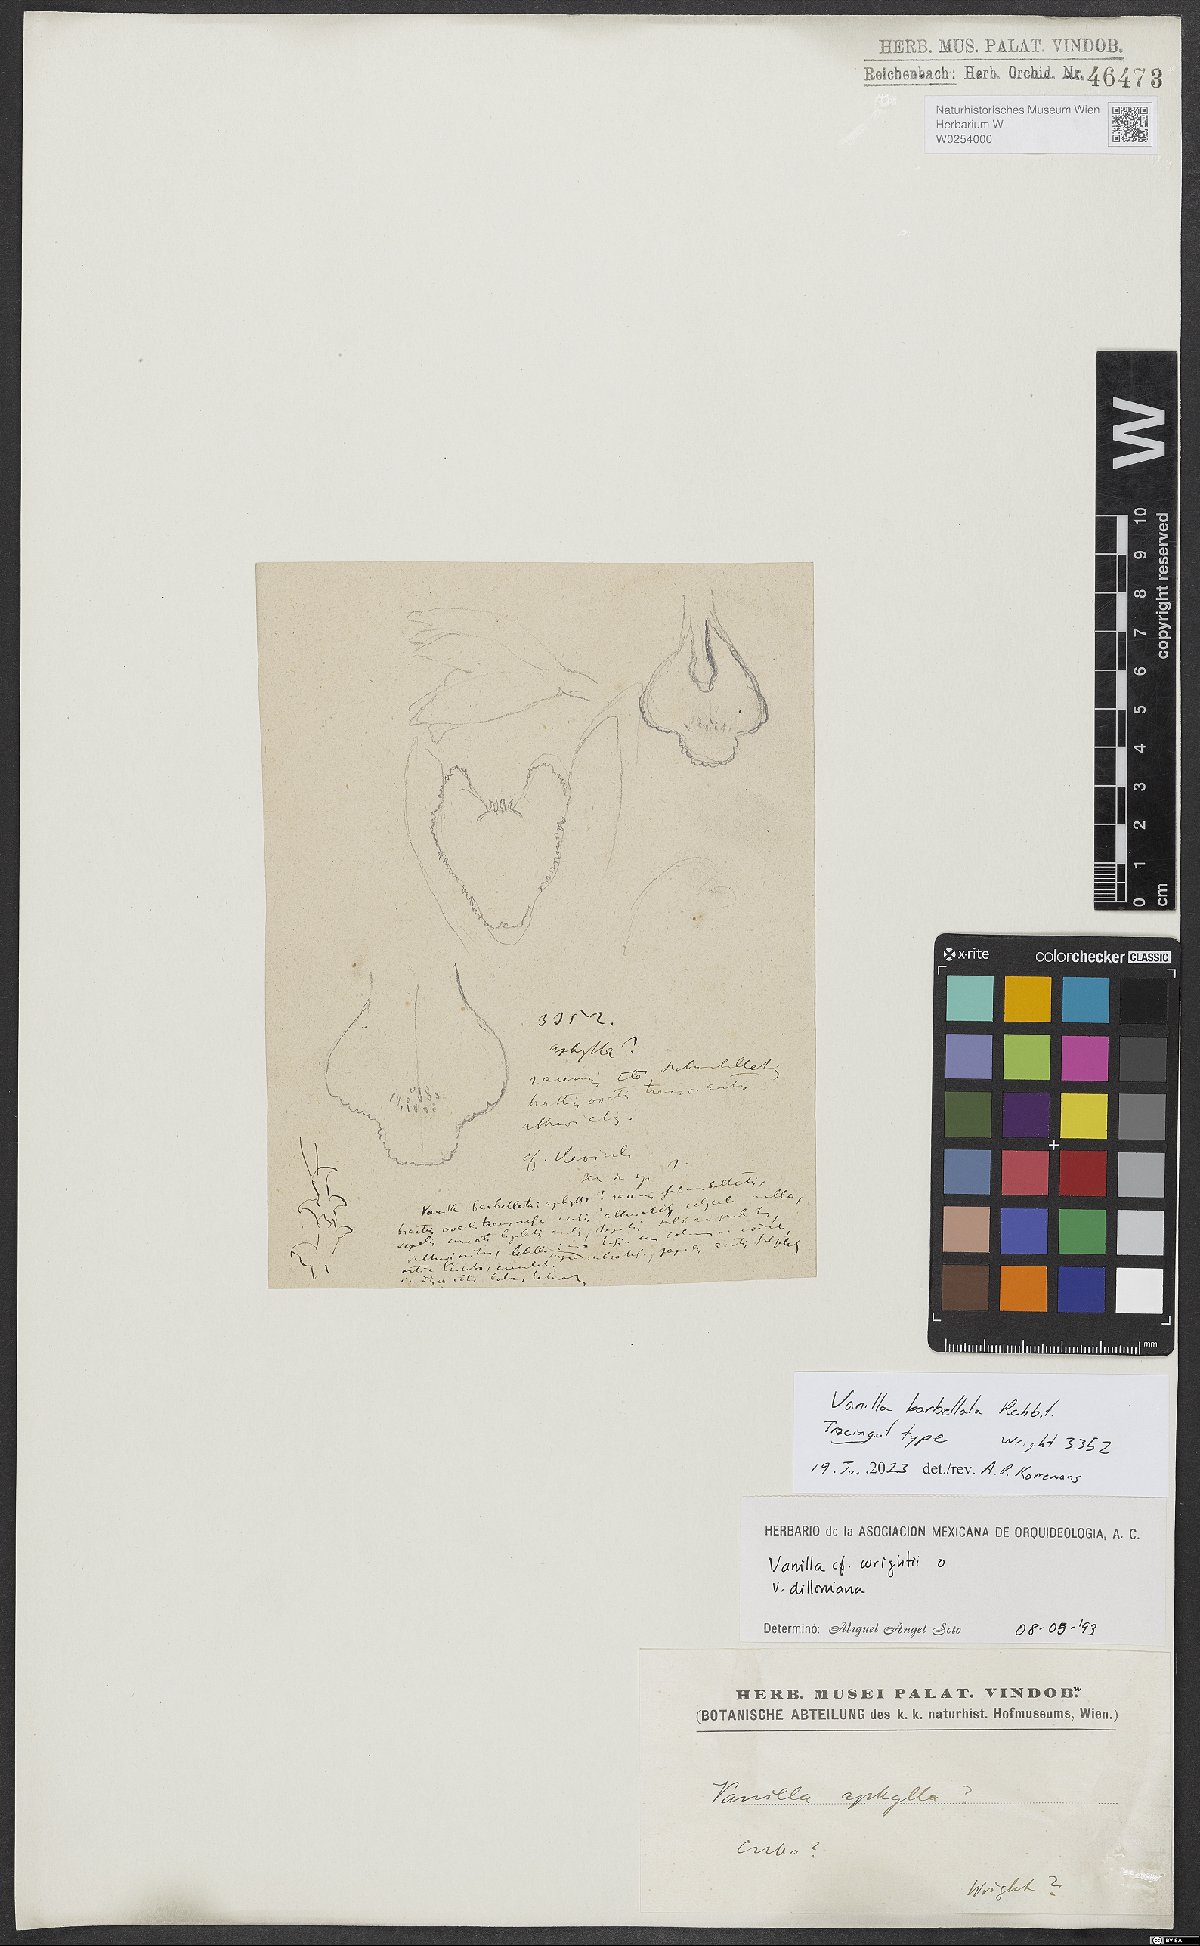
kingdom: Plantae
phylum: Tracheophyta
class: Liliopsida
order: Asparagales
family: Orchidaceae
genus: Vanilla
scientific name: Vanilla barbellata
